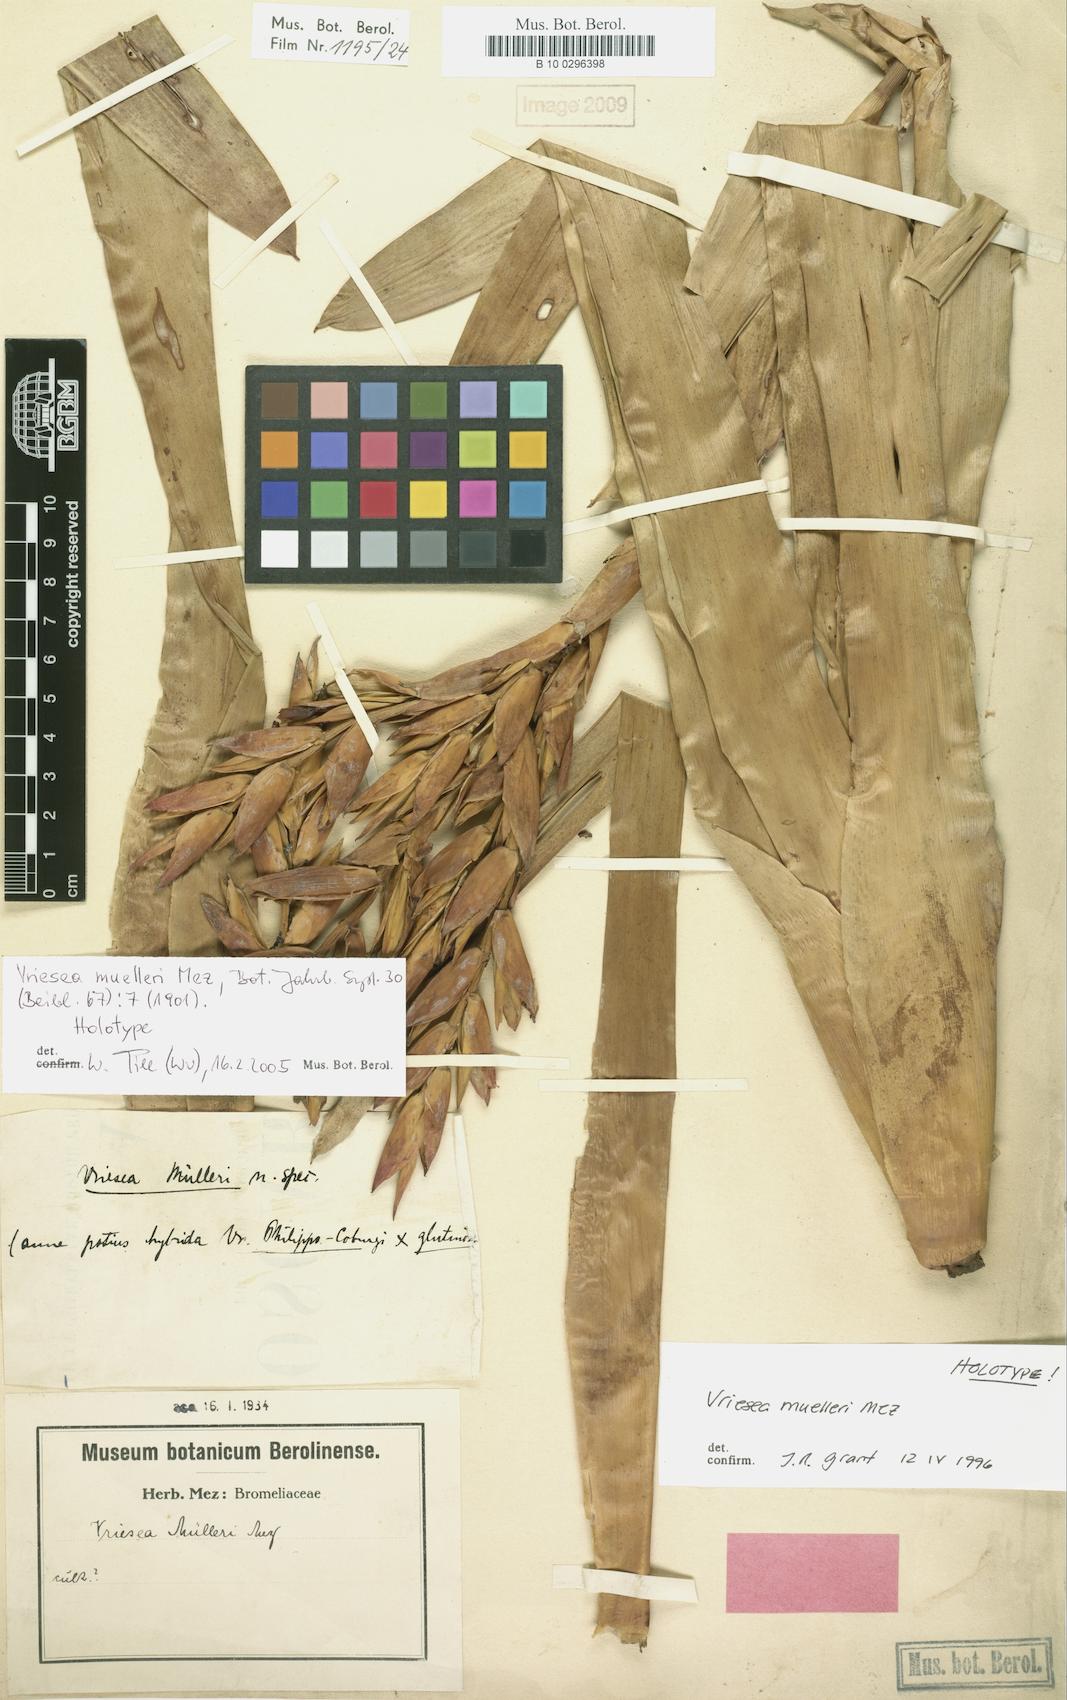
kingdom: Plantae
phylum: Tracheophyta
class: Liliopsida
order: Poales
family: Bromeliaceae
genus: Vriesea
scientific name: Vriesea muelleri
